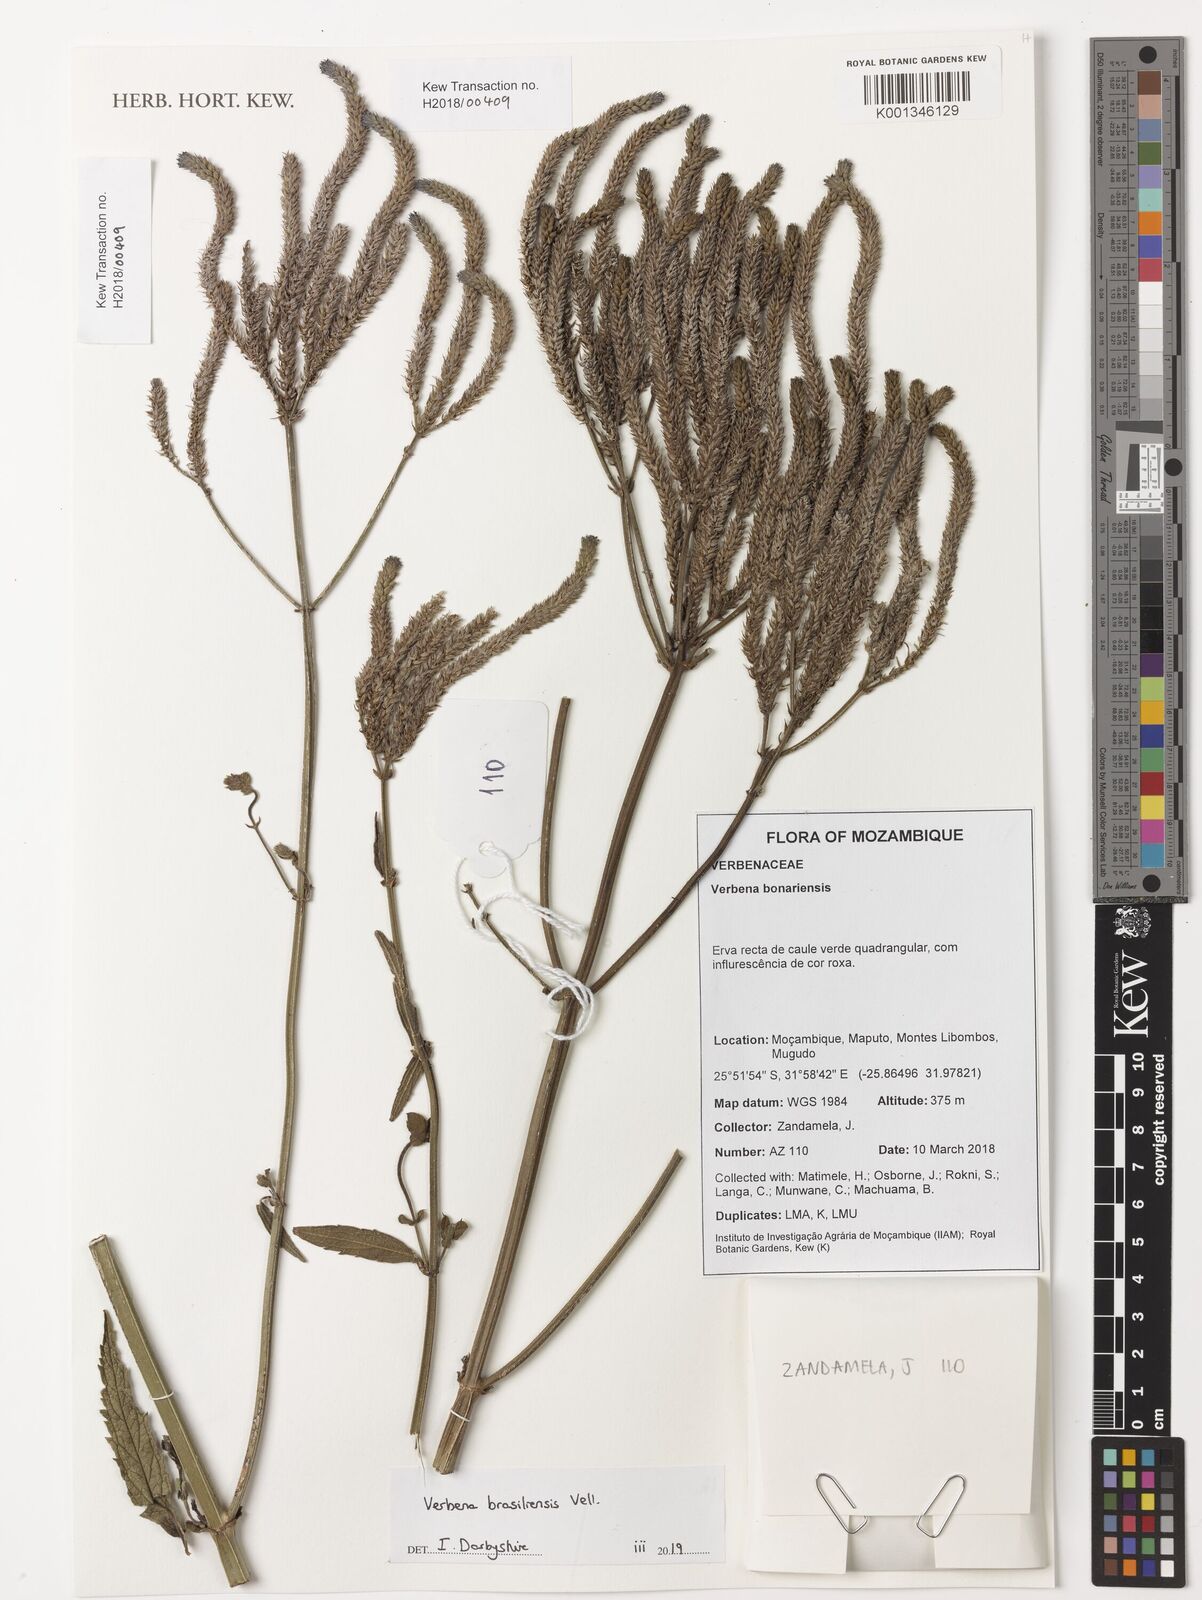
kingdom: Plantae
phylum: Tracheophyta
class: Magnoliopsida
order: Lamiales
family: Verbenaceae
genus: Verbena
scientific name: Verbena brasiliensis
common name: Brazilian vervain
